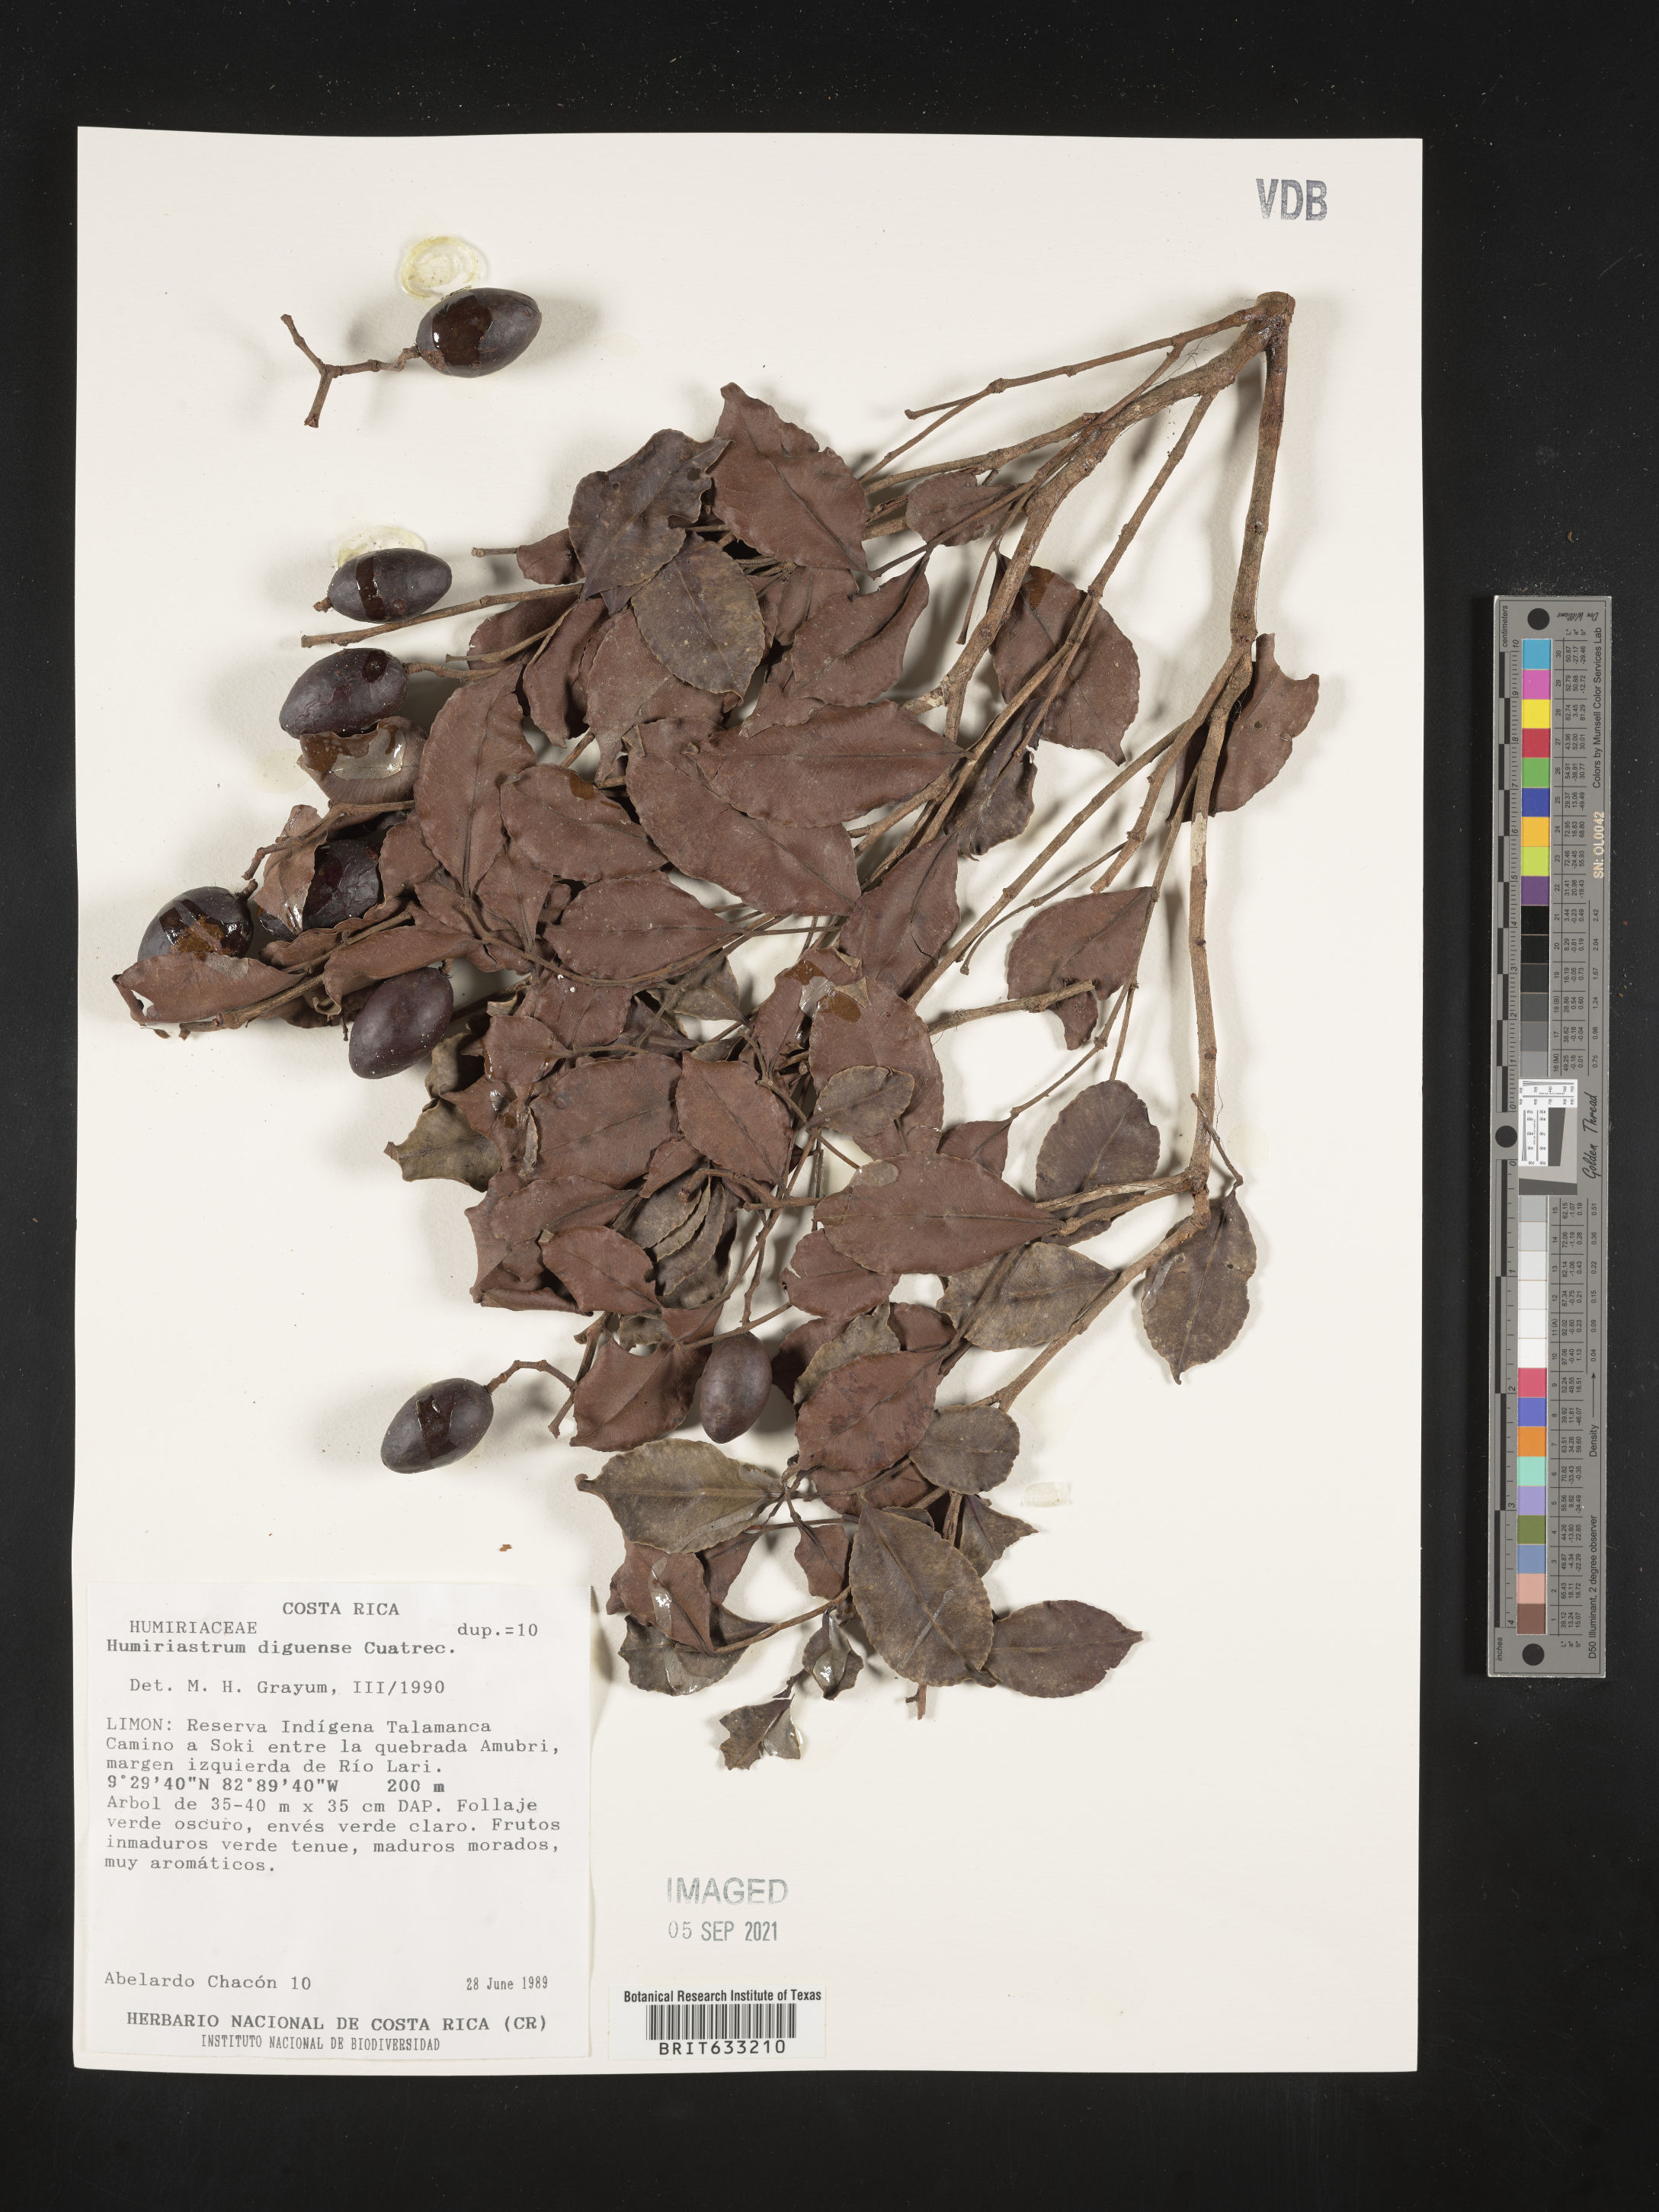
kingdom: Plantae
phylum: Tracheophyta
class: Magnoliopsida
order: Malpighiales
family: Humiriaceae
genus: Humiriastrum
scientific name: Humiriastrum
